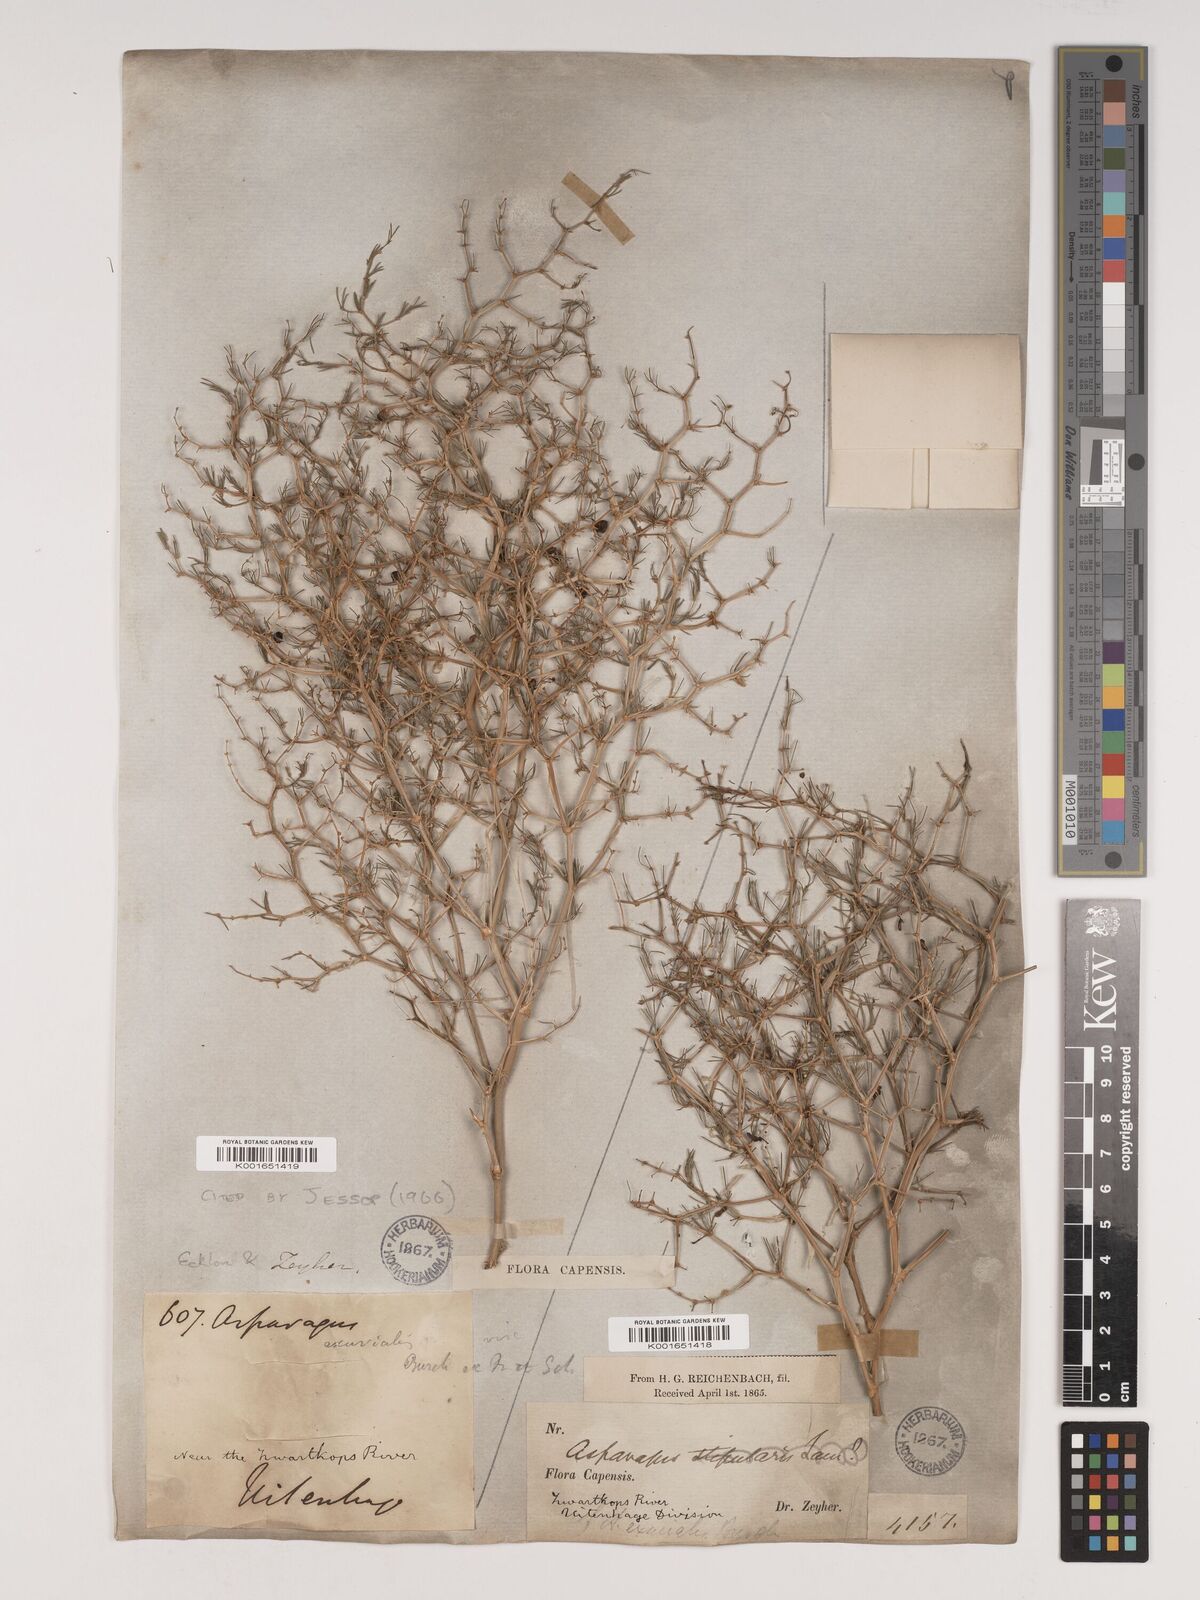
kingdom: Plantae
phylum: Tracheophyta
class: Liliopsida
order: Asparagales
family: Asparagaceae
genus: Asparagus
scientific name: Asparagus exuvialis
